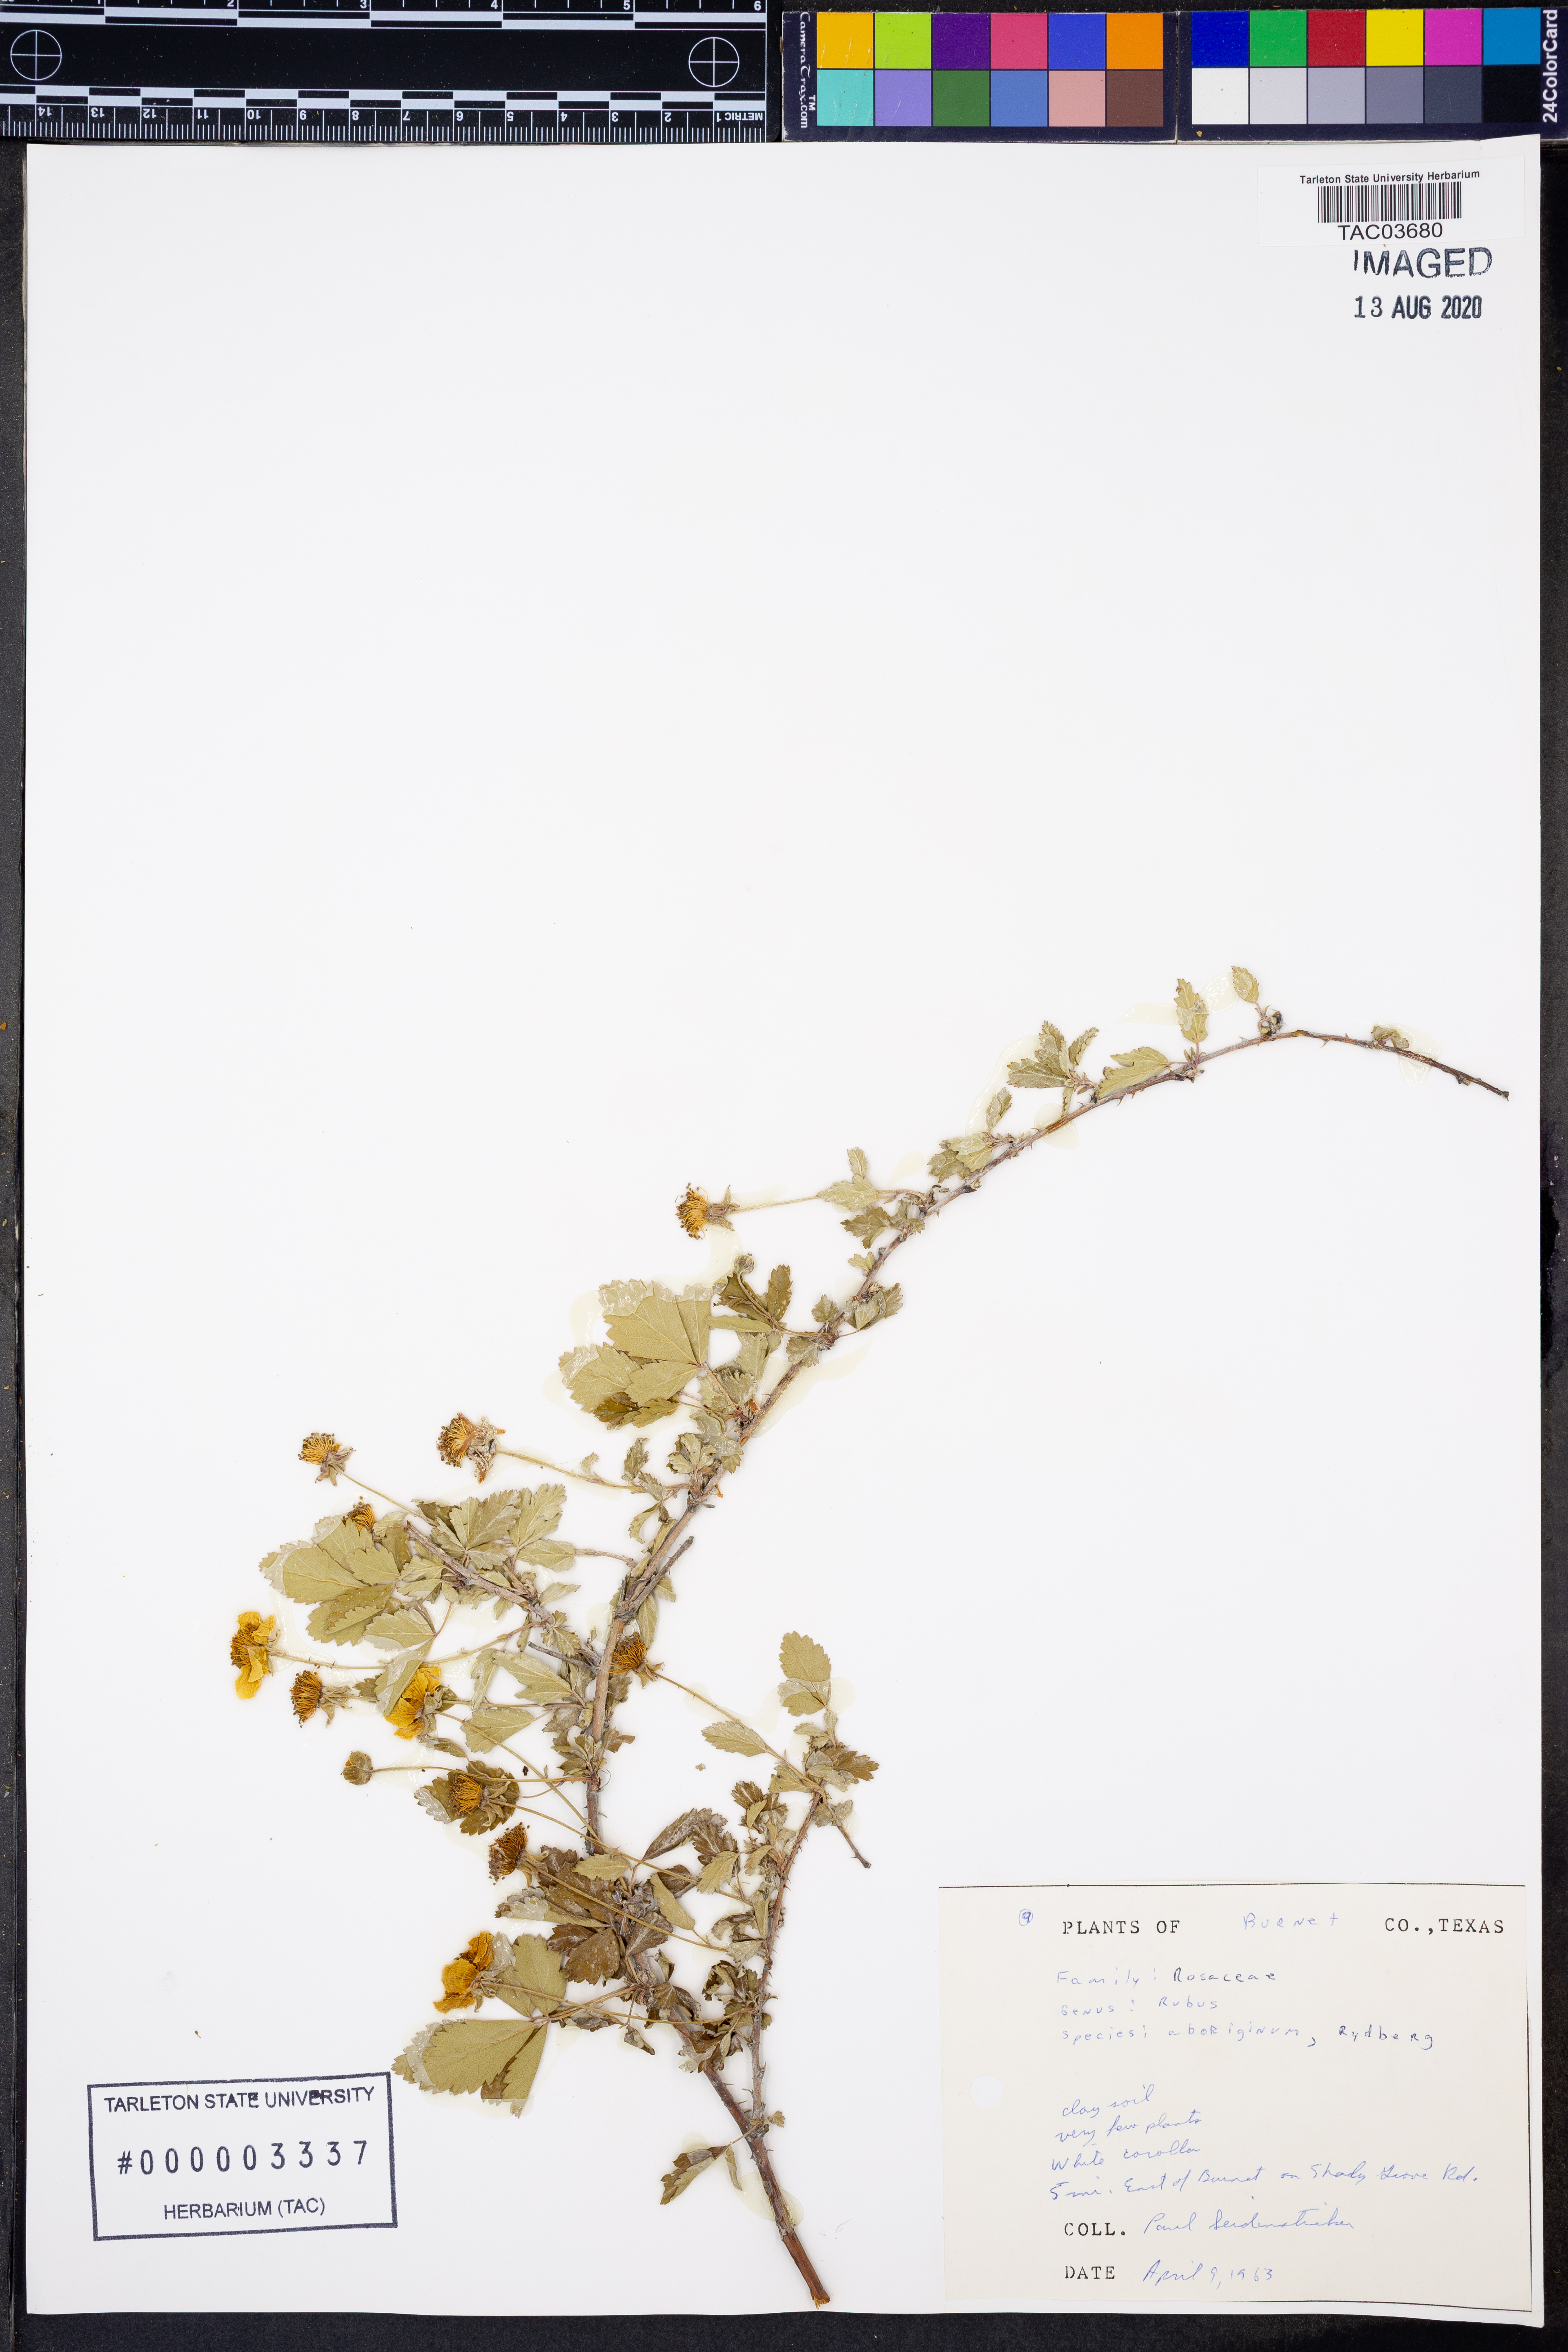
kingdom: Plantae
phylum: Tracheophyta
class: Magnoliopsida
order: Rosales
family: Rosaceae
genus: Rubus
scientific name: Rubus aboriginum
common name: Mayes dewberry
